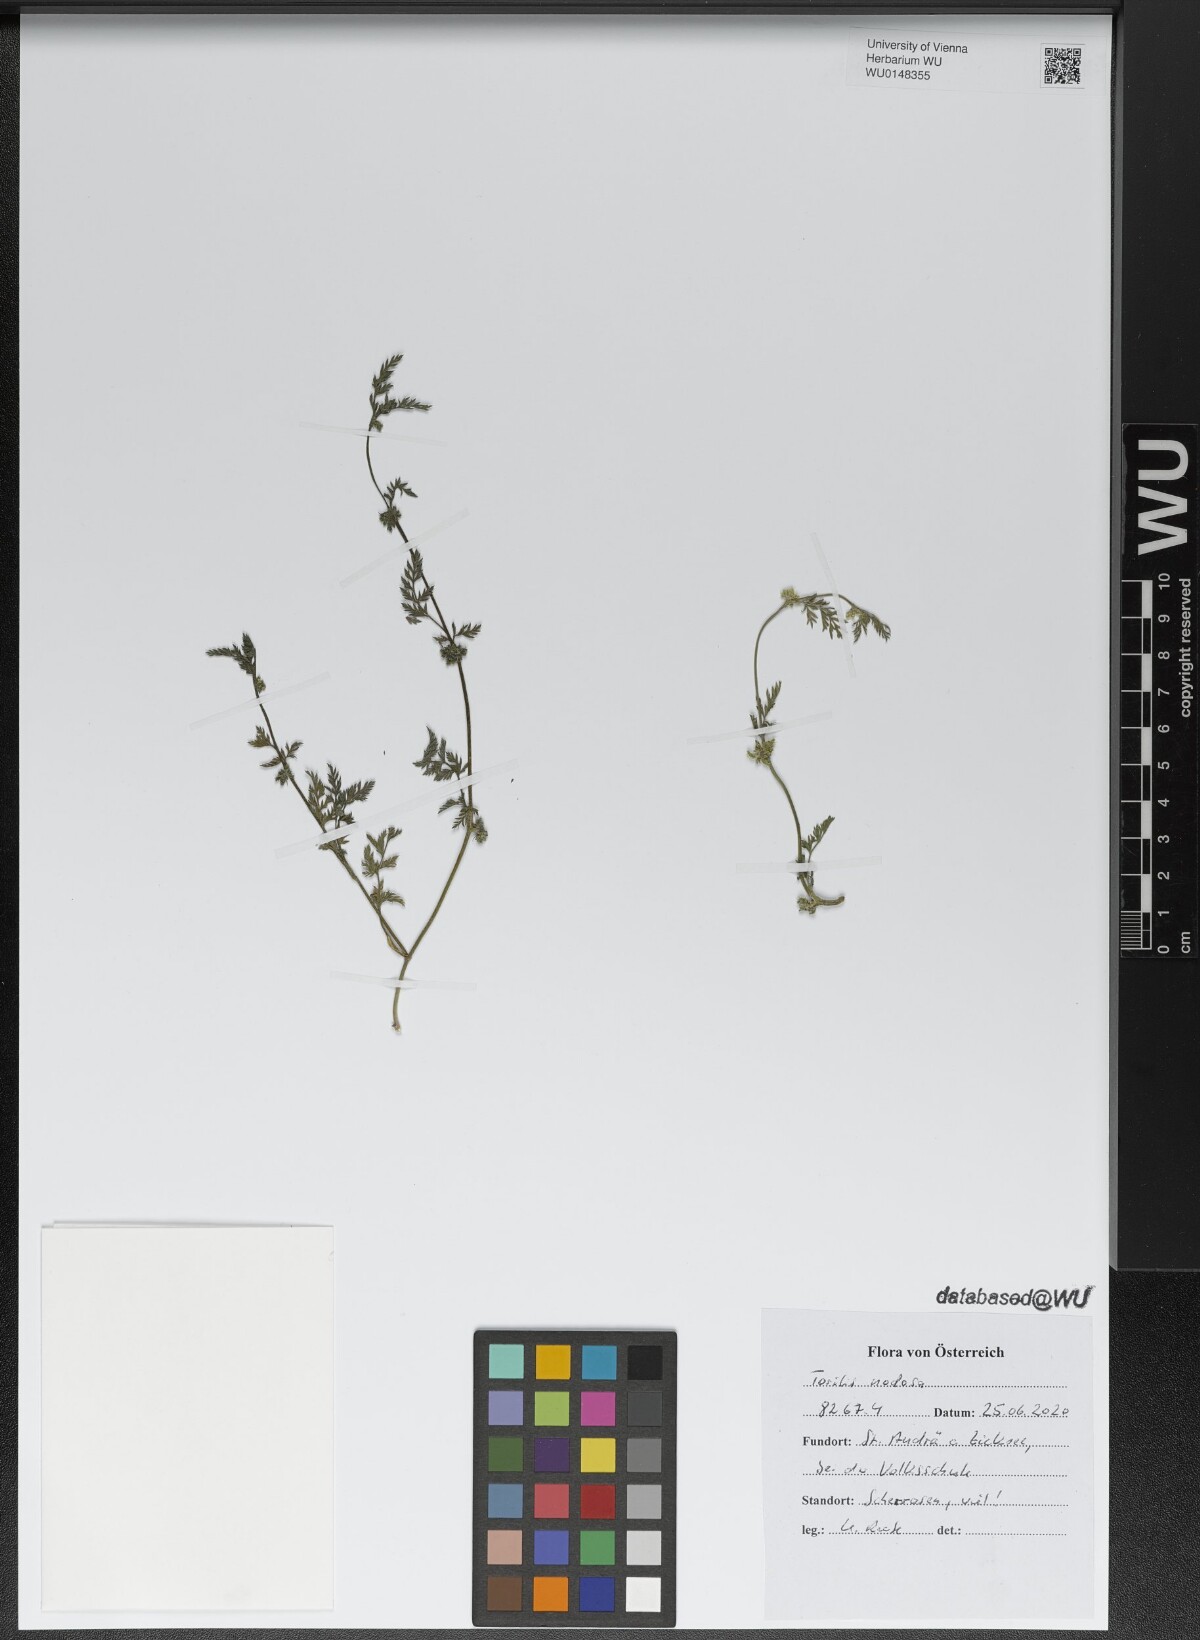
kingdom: Plantae
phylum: Tracheophyta
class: Magnoliopsida
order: Apiales
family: Apiaceae
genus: Torilis
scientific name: Torilis nodosa
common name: Knotted hedge-parsley
